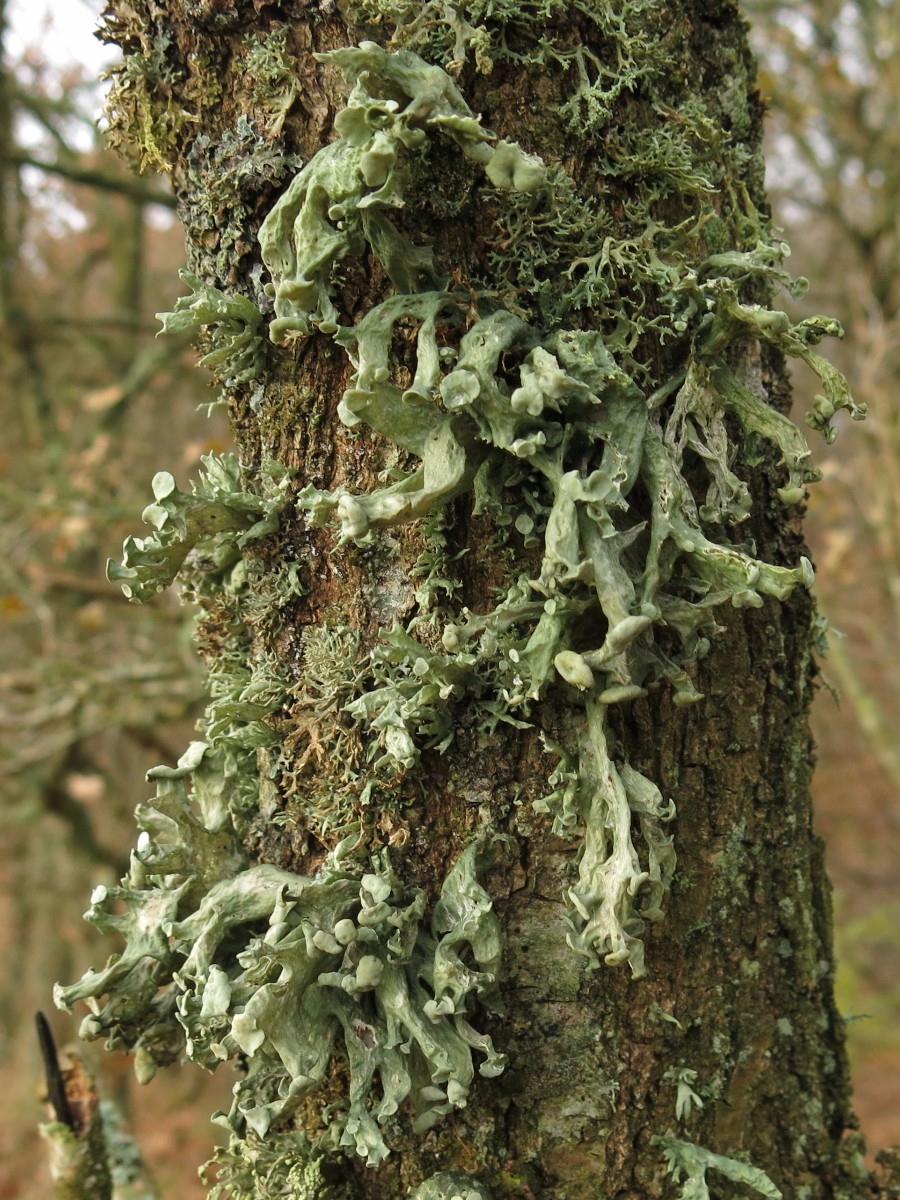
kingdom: Fungi
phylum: Ascomycota
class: Lecanoromycetes
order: Lecanorales
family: Ramalinaceae
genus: Ramalina
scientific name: Ramalina fastigiata
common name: tue-grenlav
